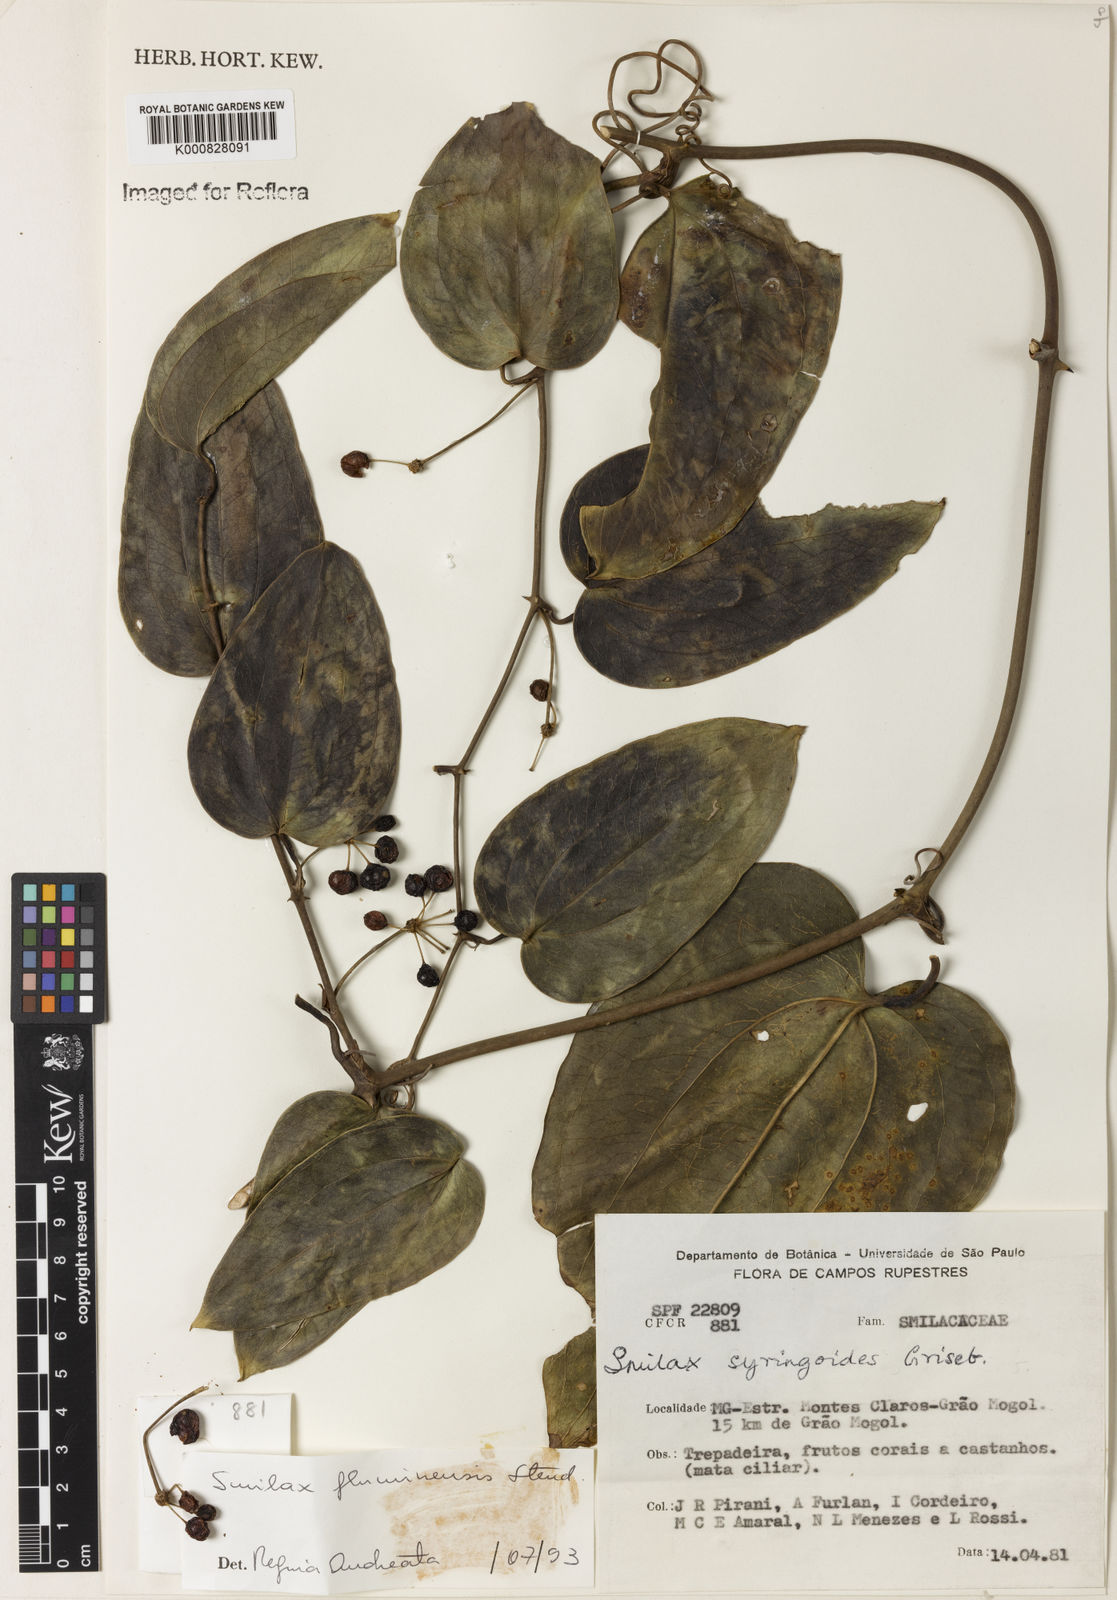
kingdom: Plantae
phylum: Tracheophyta
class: Liliopsida
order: Liliales
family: Smilacaceae
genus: Smilax
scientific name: Smilax fluminensis
